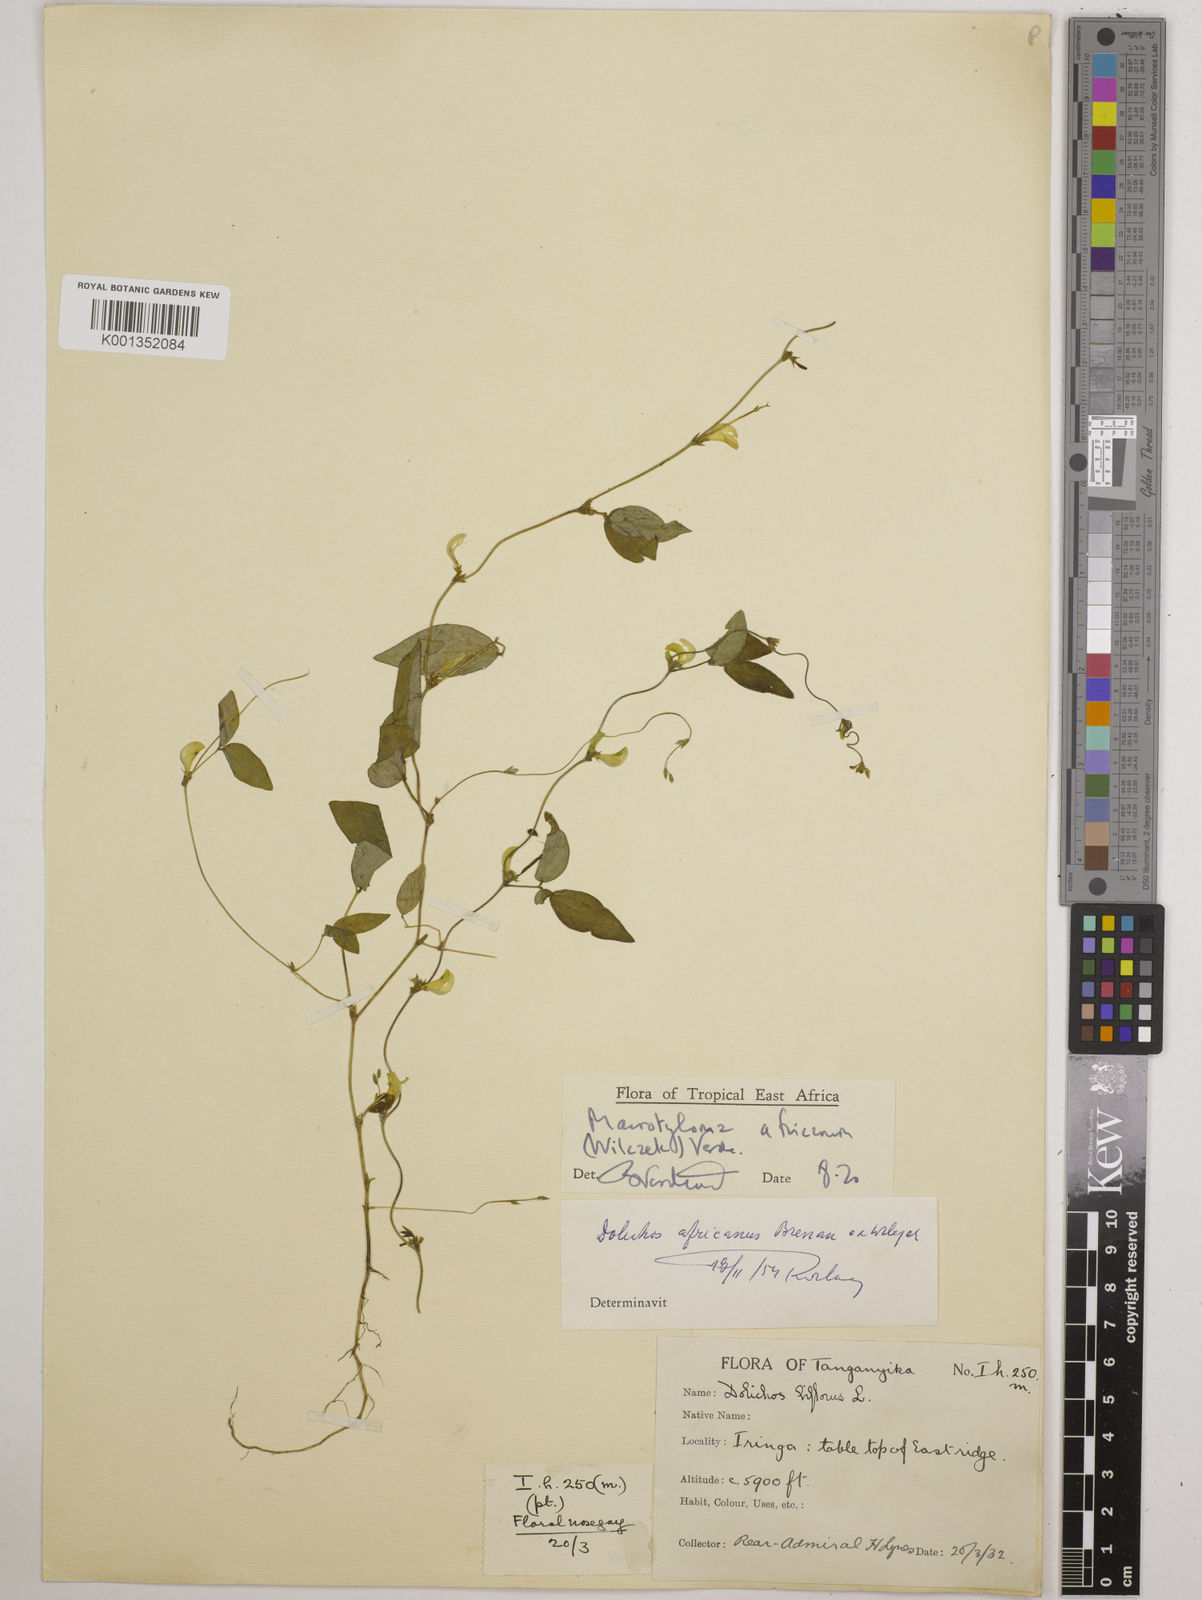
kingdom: Plantae
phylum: Tracheophyta
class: Magnoliopsida
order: Fabales
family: Fabaceae
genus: Macrotyloma
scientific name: Macrotyloma africanum
